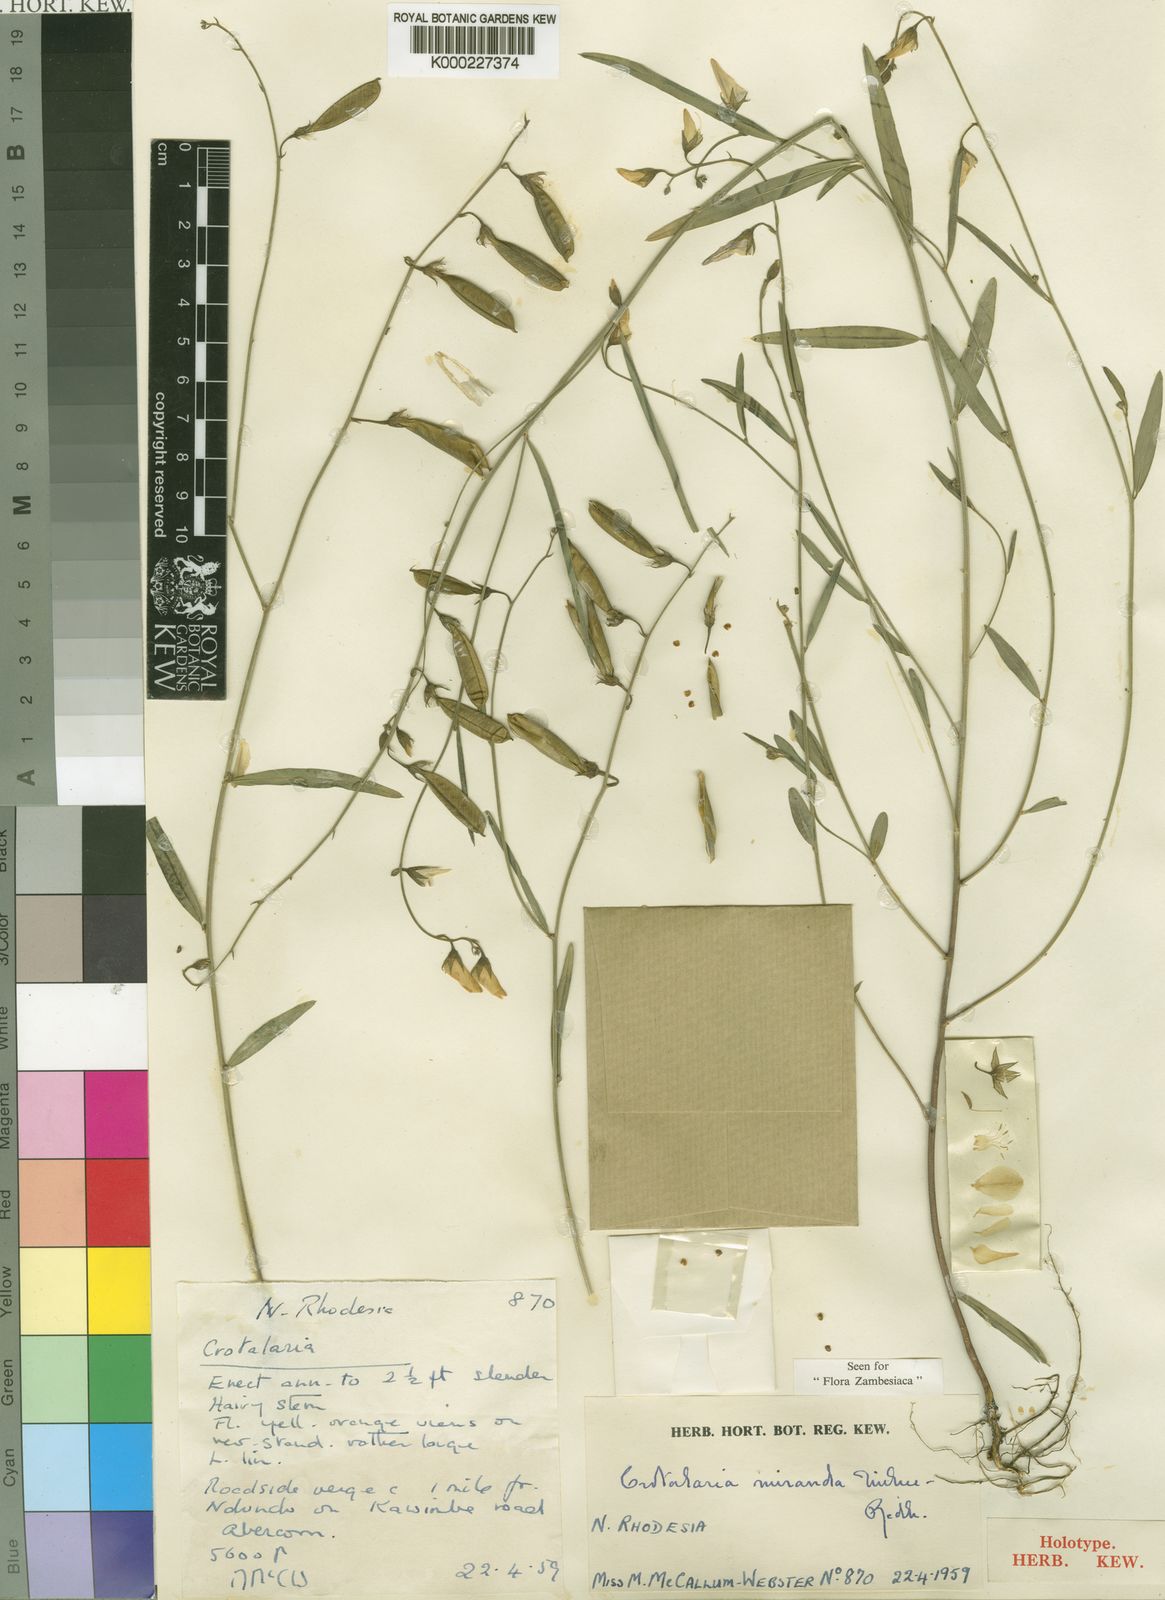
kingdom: Plantae
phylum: Tracheophyta
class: Magnoliopsida
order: Fabales
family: Fabaceae
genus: Crotalaria
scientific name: Crotalaria miranda
